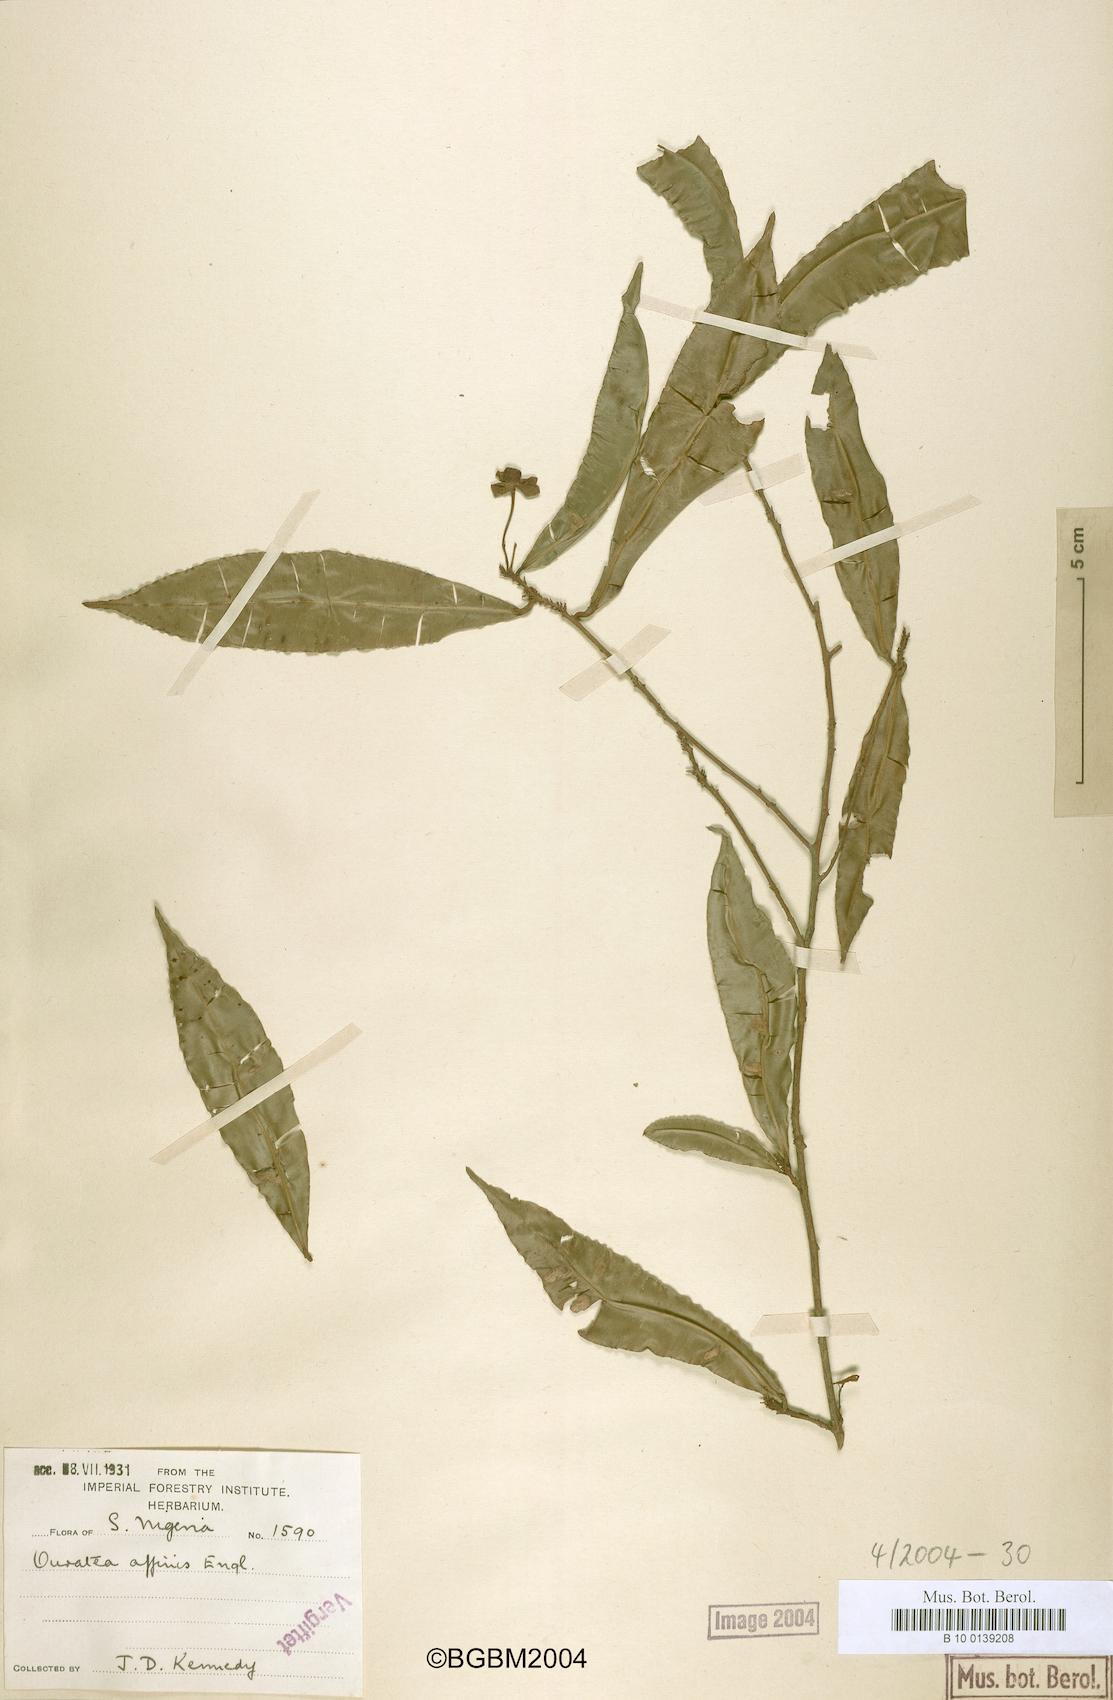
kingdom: Plantae
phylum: Tracheophyta
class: Magnoliopsida
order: Malpighiales
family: Ochnaceae
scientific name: Ochnaceae
